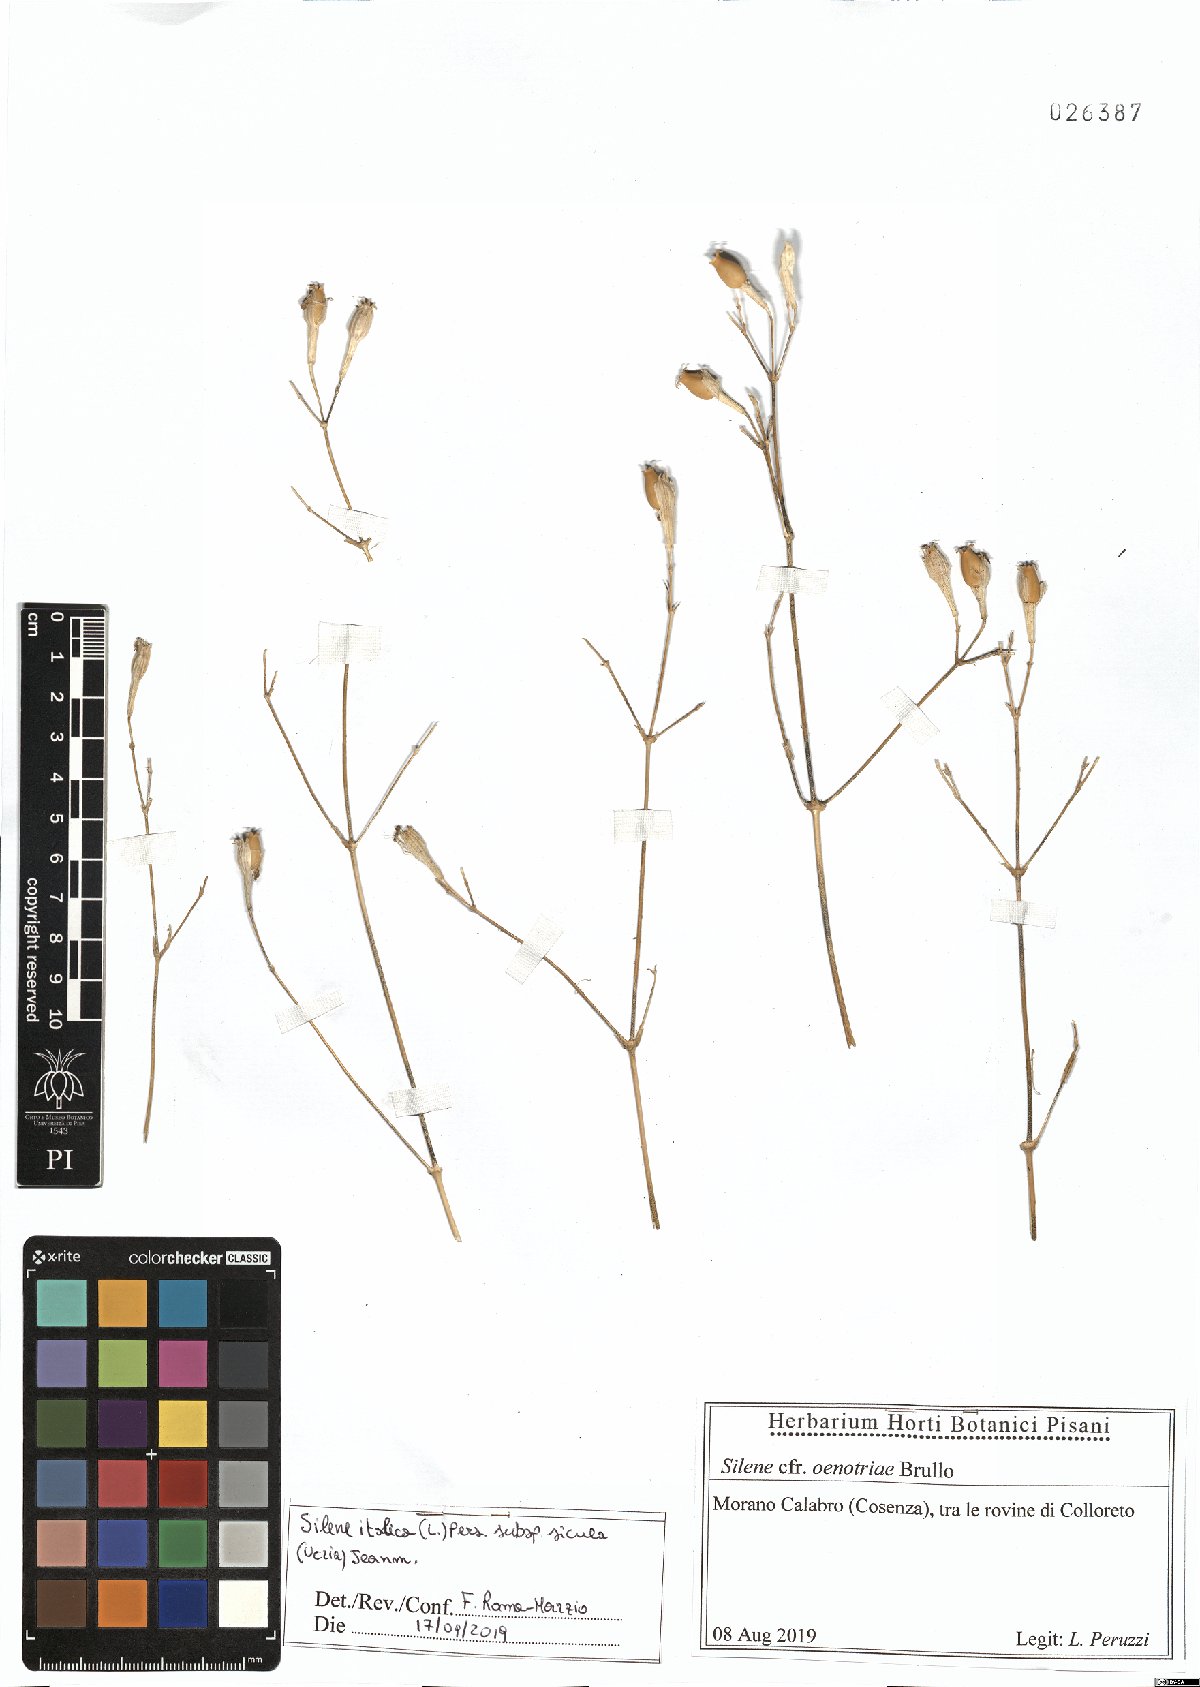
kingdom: Plantae
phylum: Tracheophyta
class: Magnoliopsida
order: Caryophyllales
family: Caryophyllaceae
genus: Silene
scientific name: Silene italica
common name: Italian catchfly
